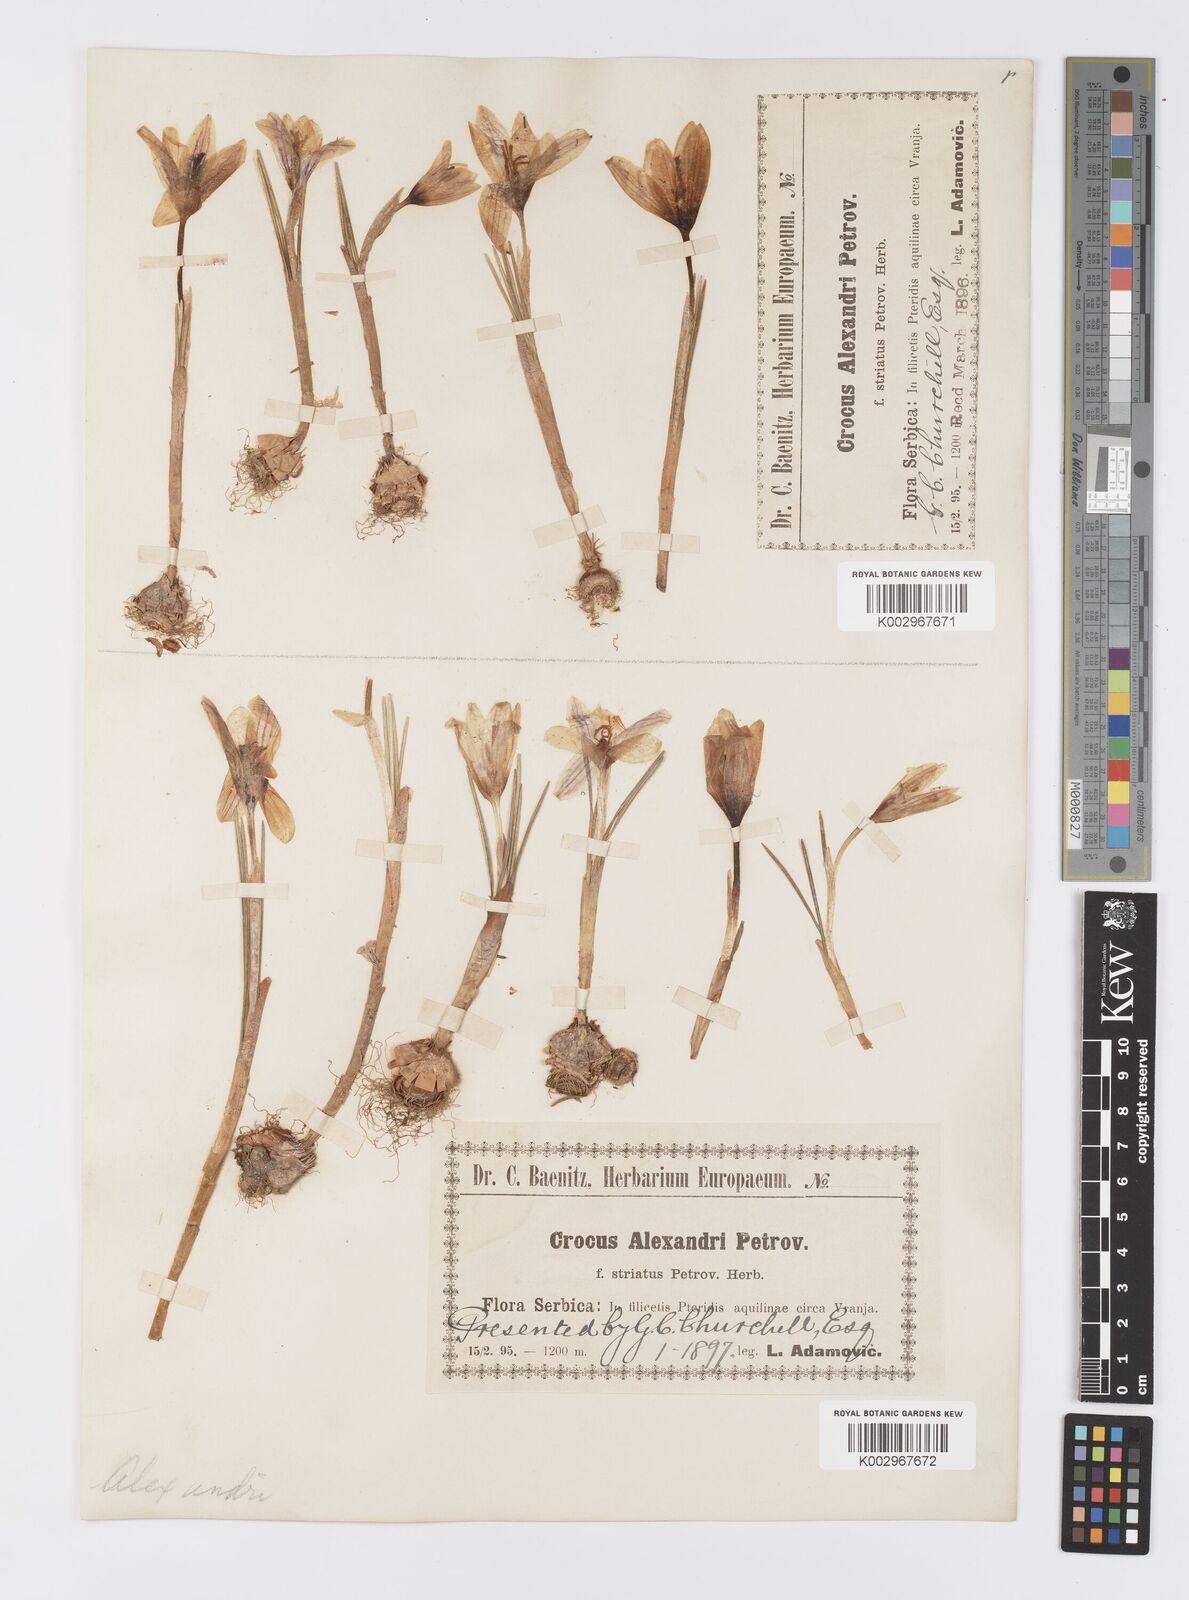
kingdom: Plantae
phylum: Tracheophyta
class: Liliopsida
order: Asparagales
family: Iridaceae
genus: Crocus
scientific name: Crocus alexandri
